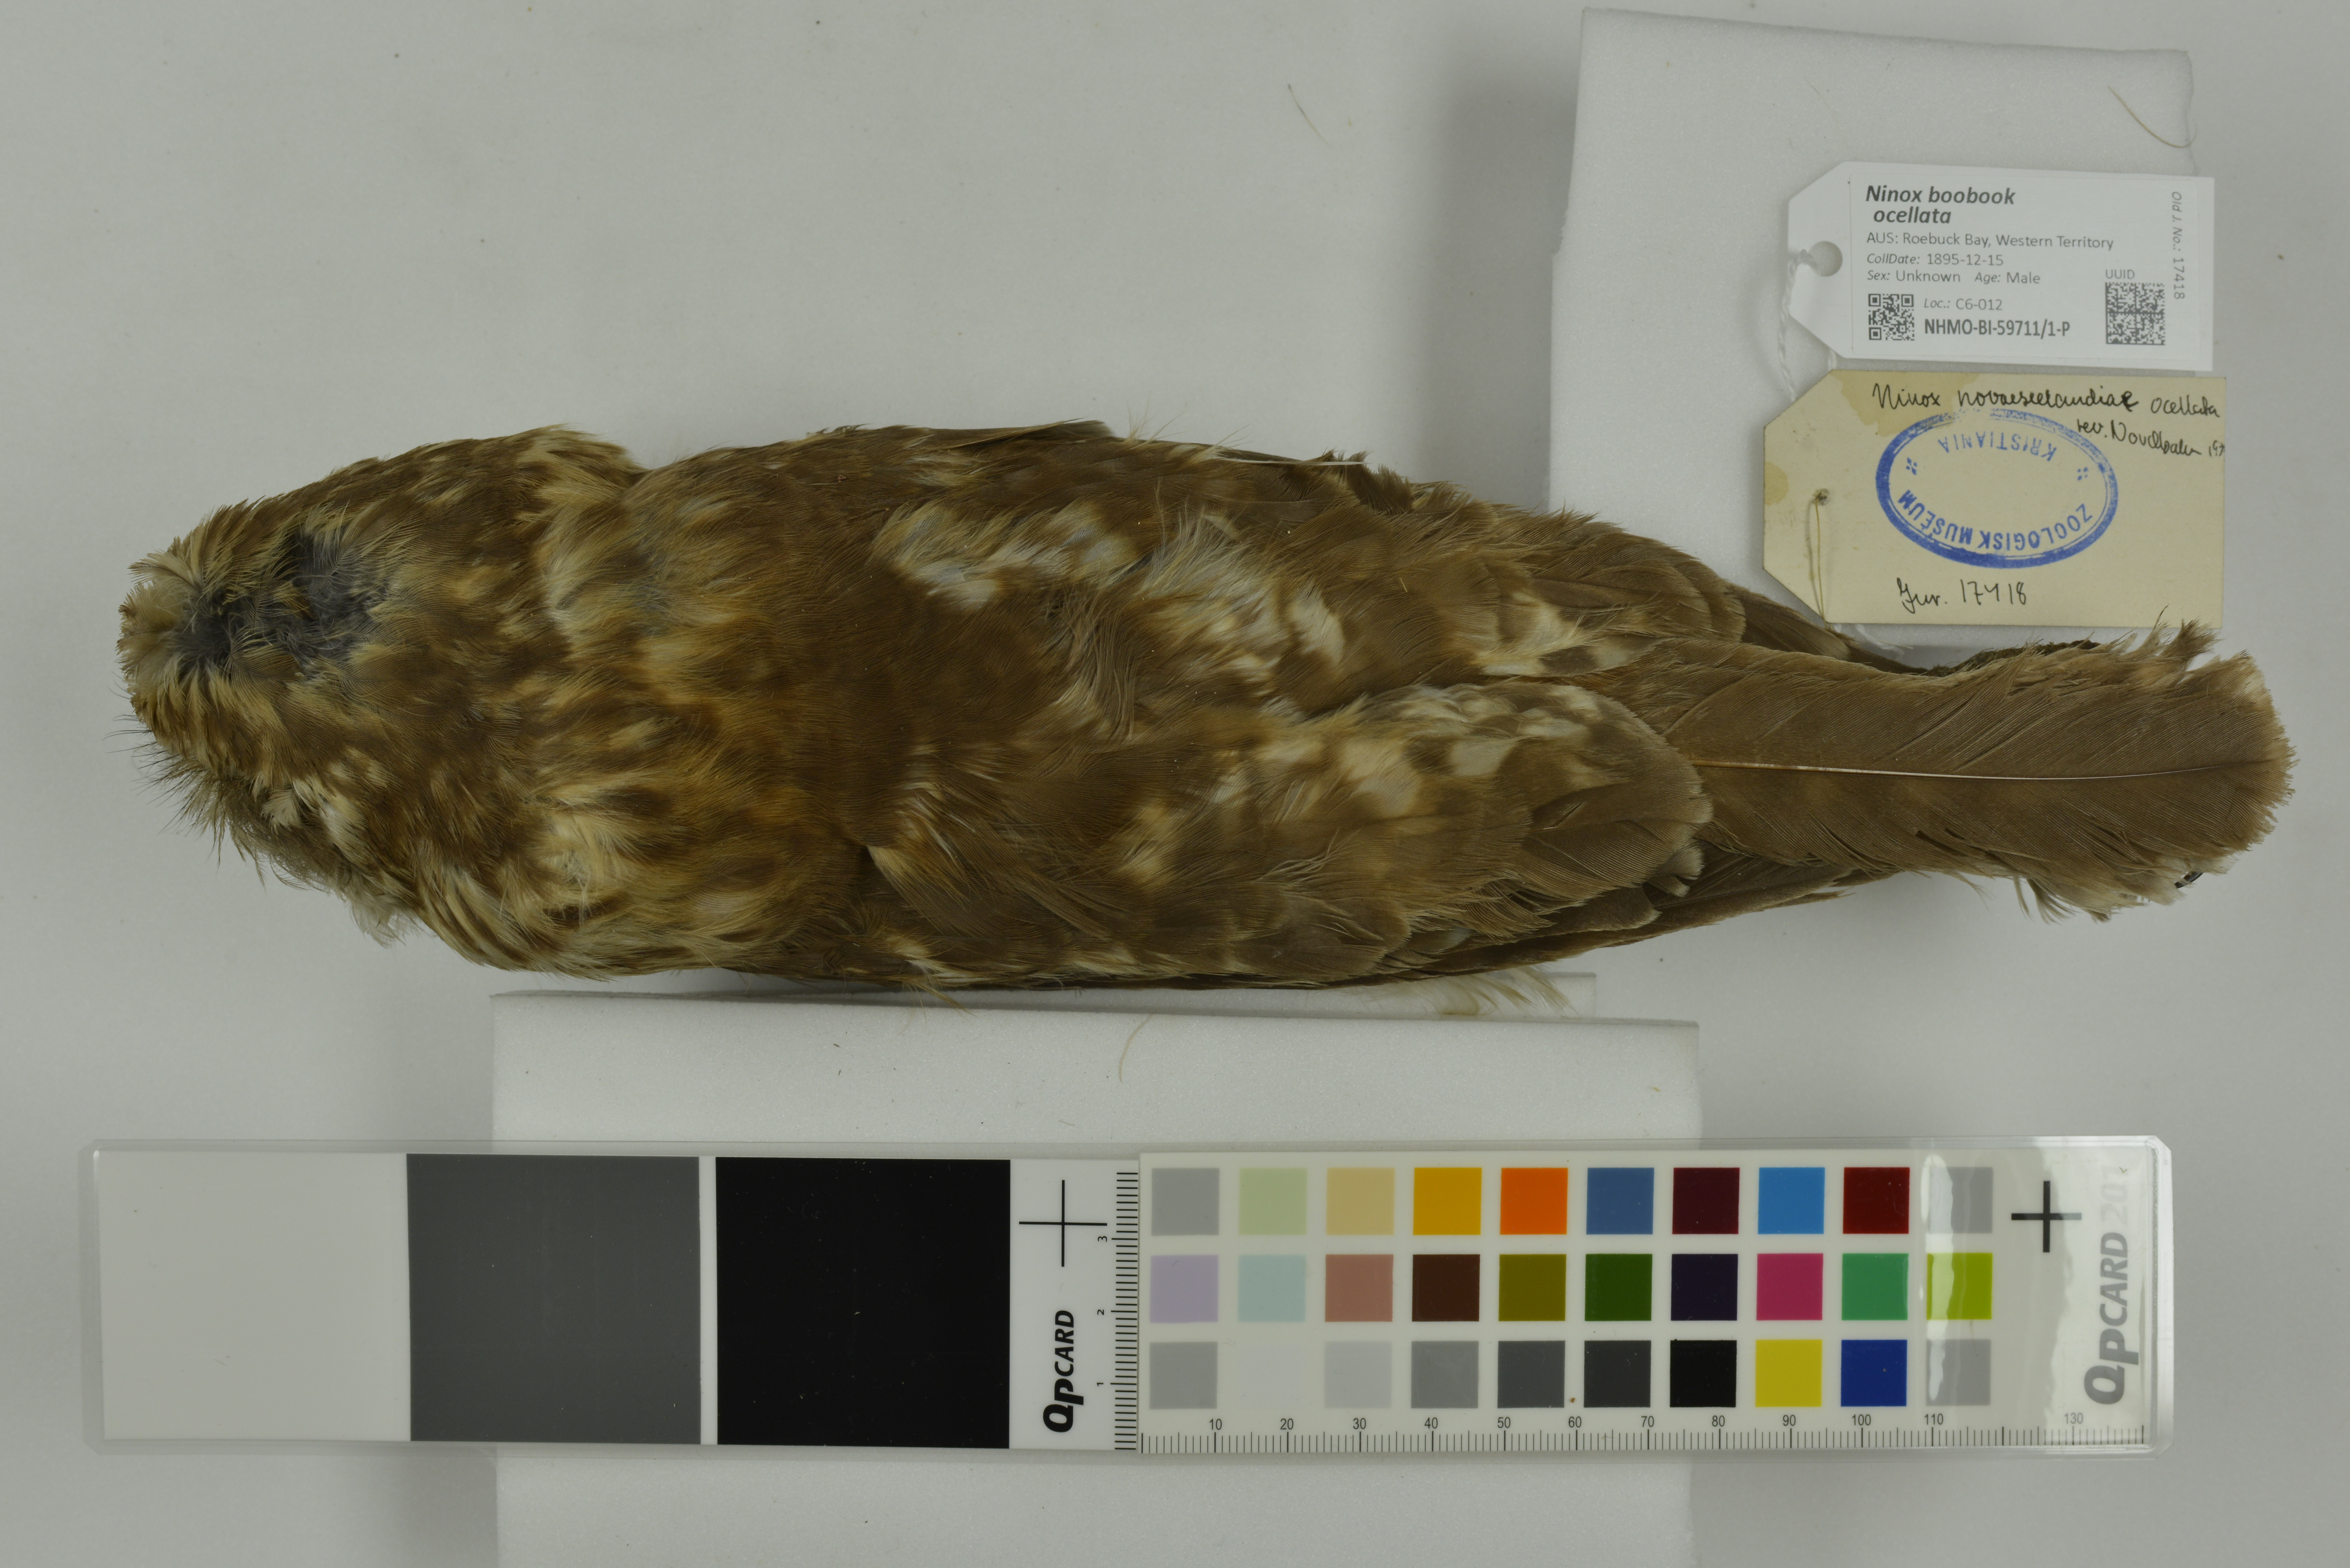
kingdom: Animalia
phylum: Chordata
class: Aves
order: Strigiformes
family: Strigidae
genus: Ninox
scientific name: Ninox boobook
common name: Southern boobook
